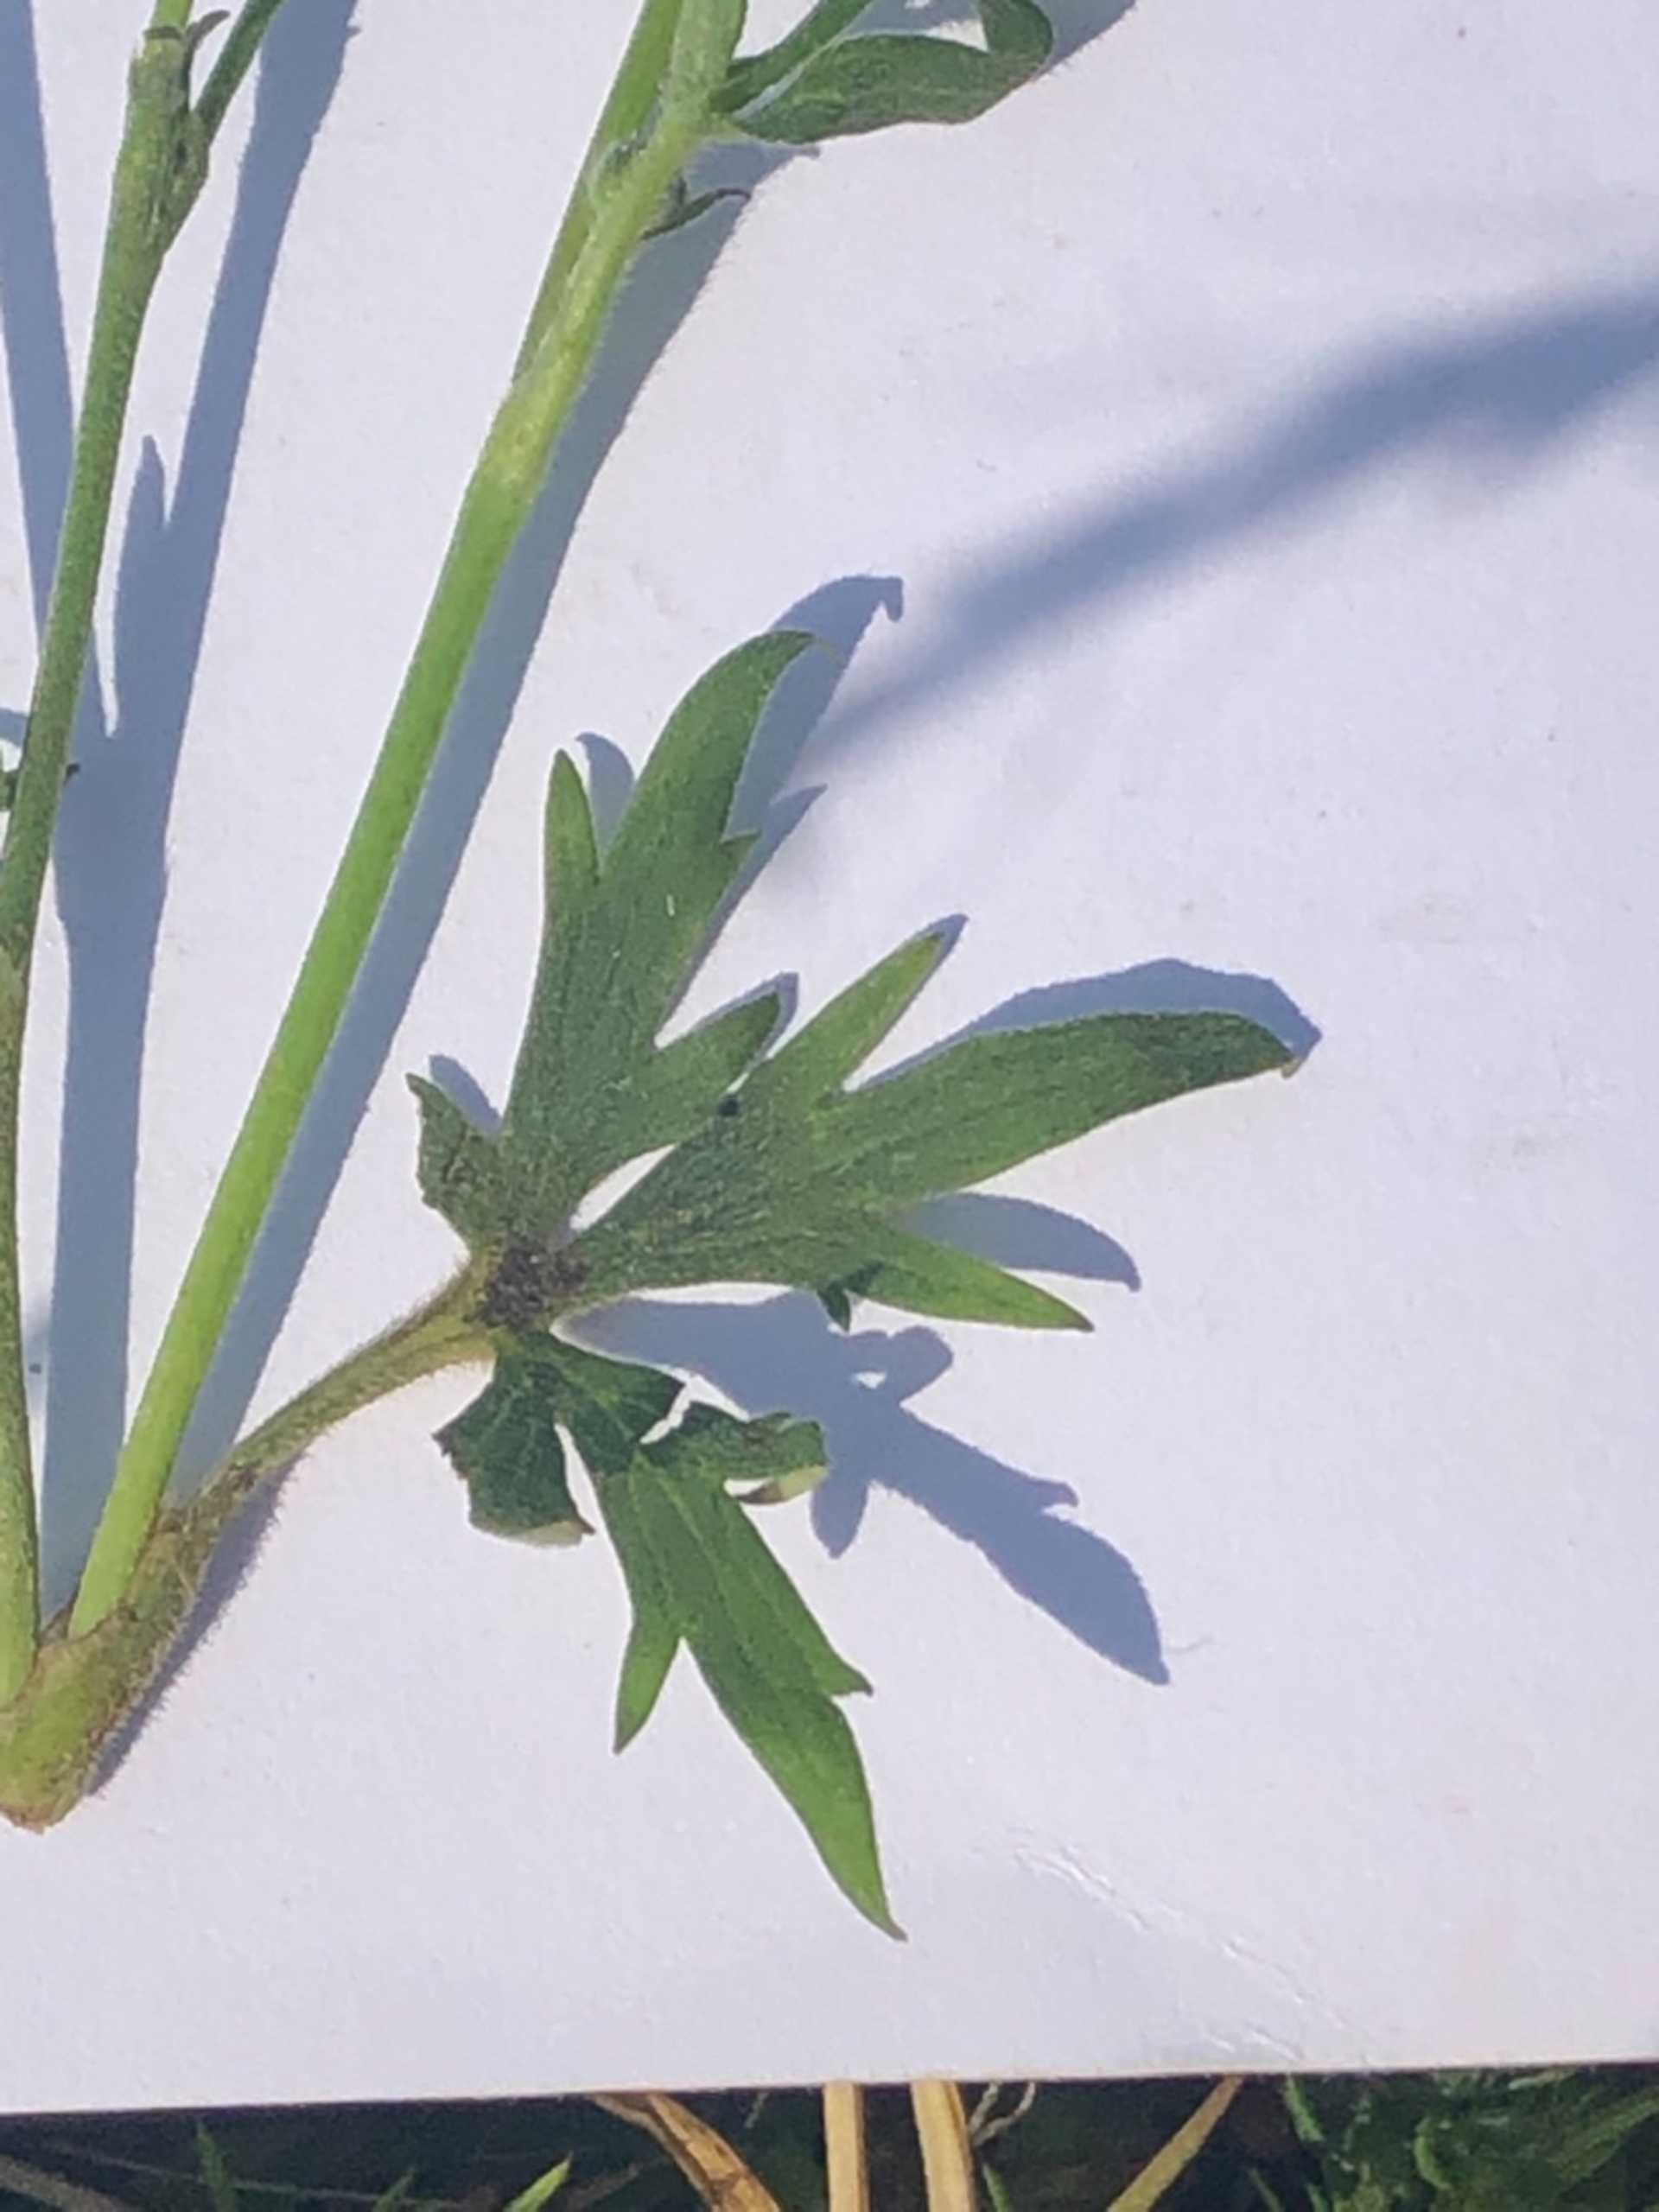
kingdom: Plantae
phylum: Tracheophyta
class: Magnoliopsida
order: Ranunculales
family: Ranunculaceae
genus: Ranunculus
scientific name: Ranunculus acris
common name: Bidende ranunkel
